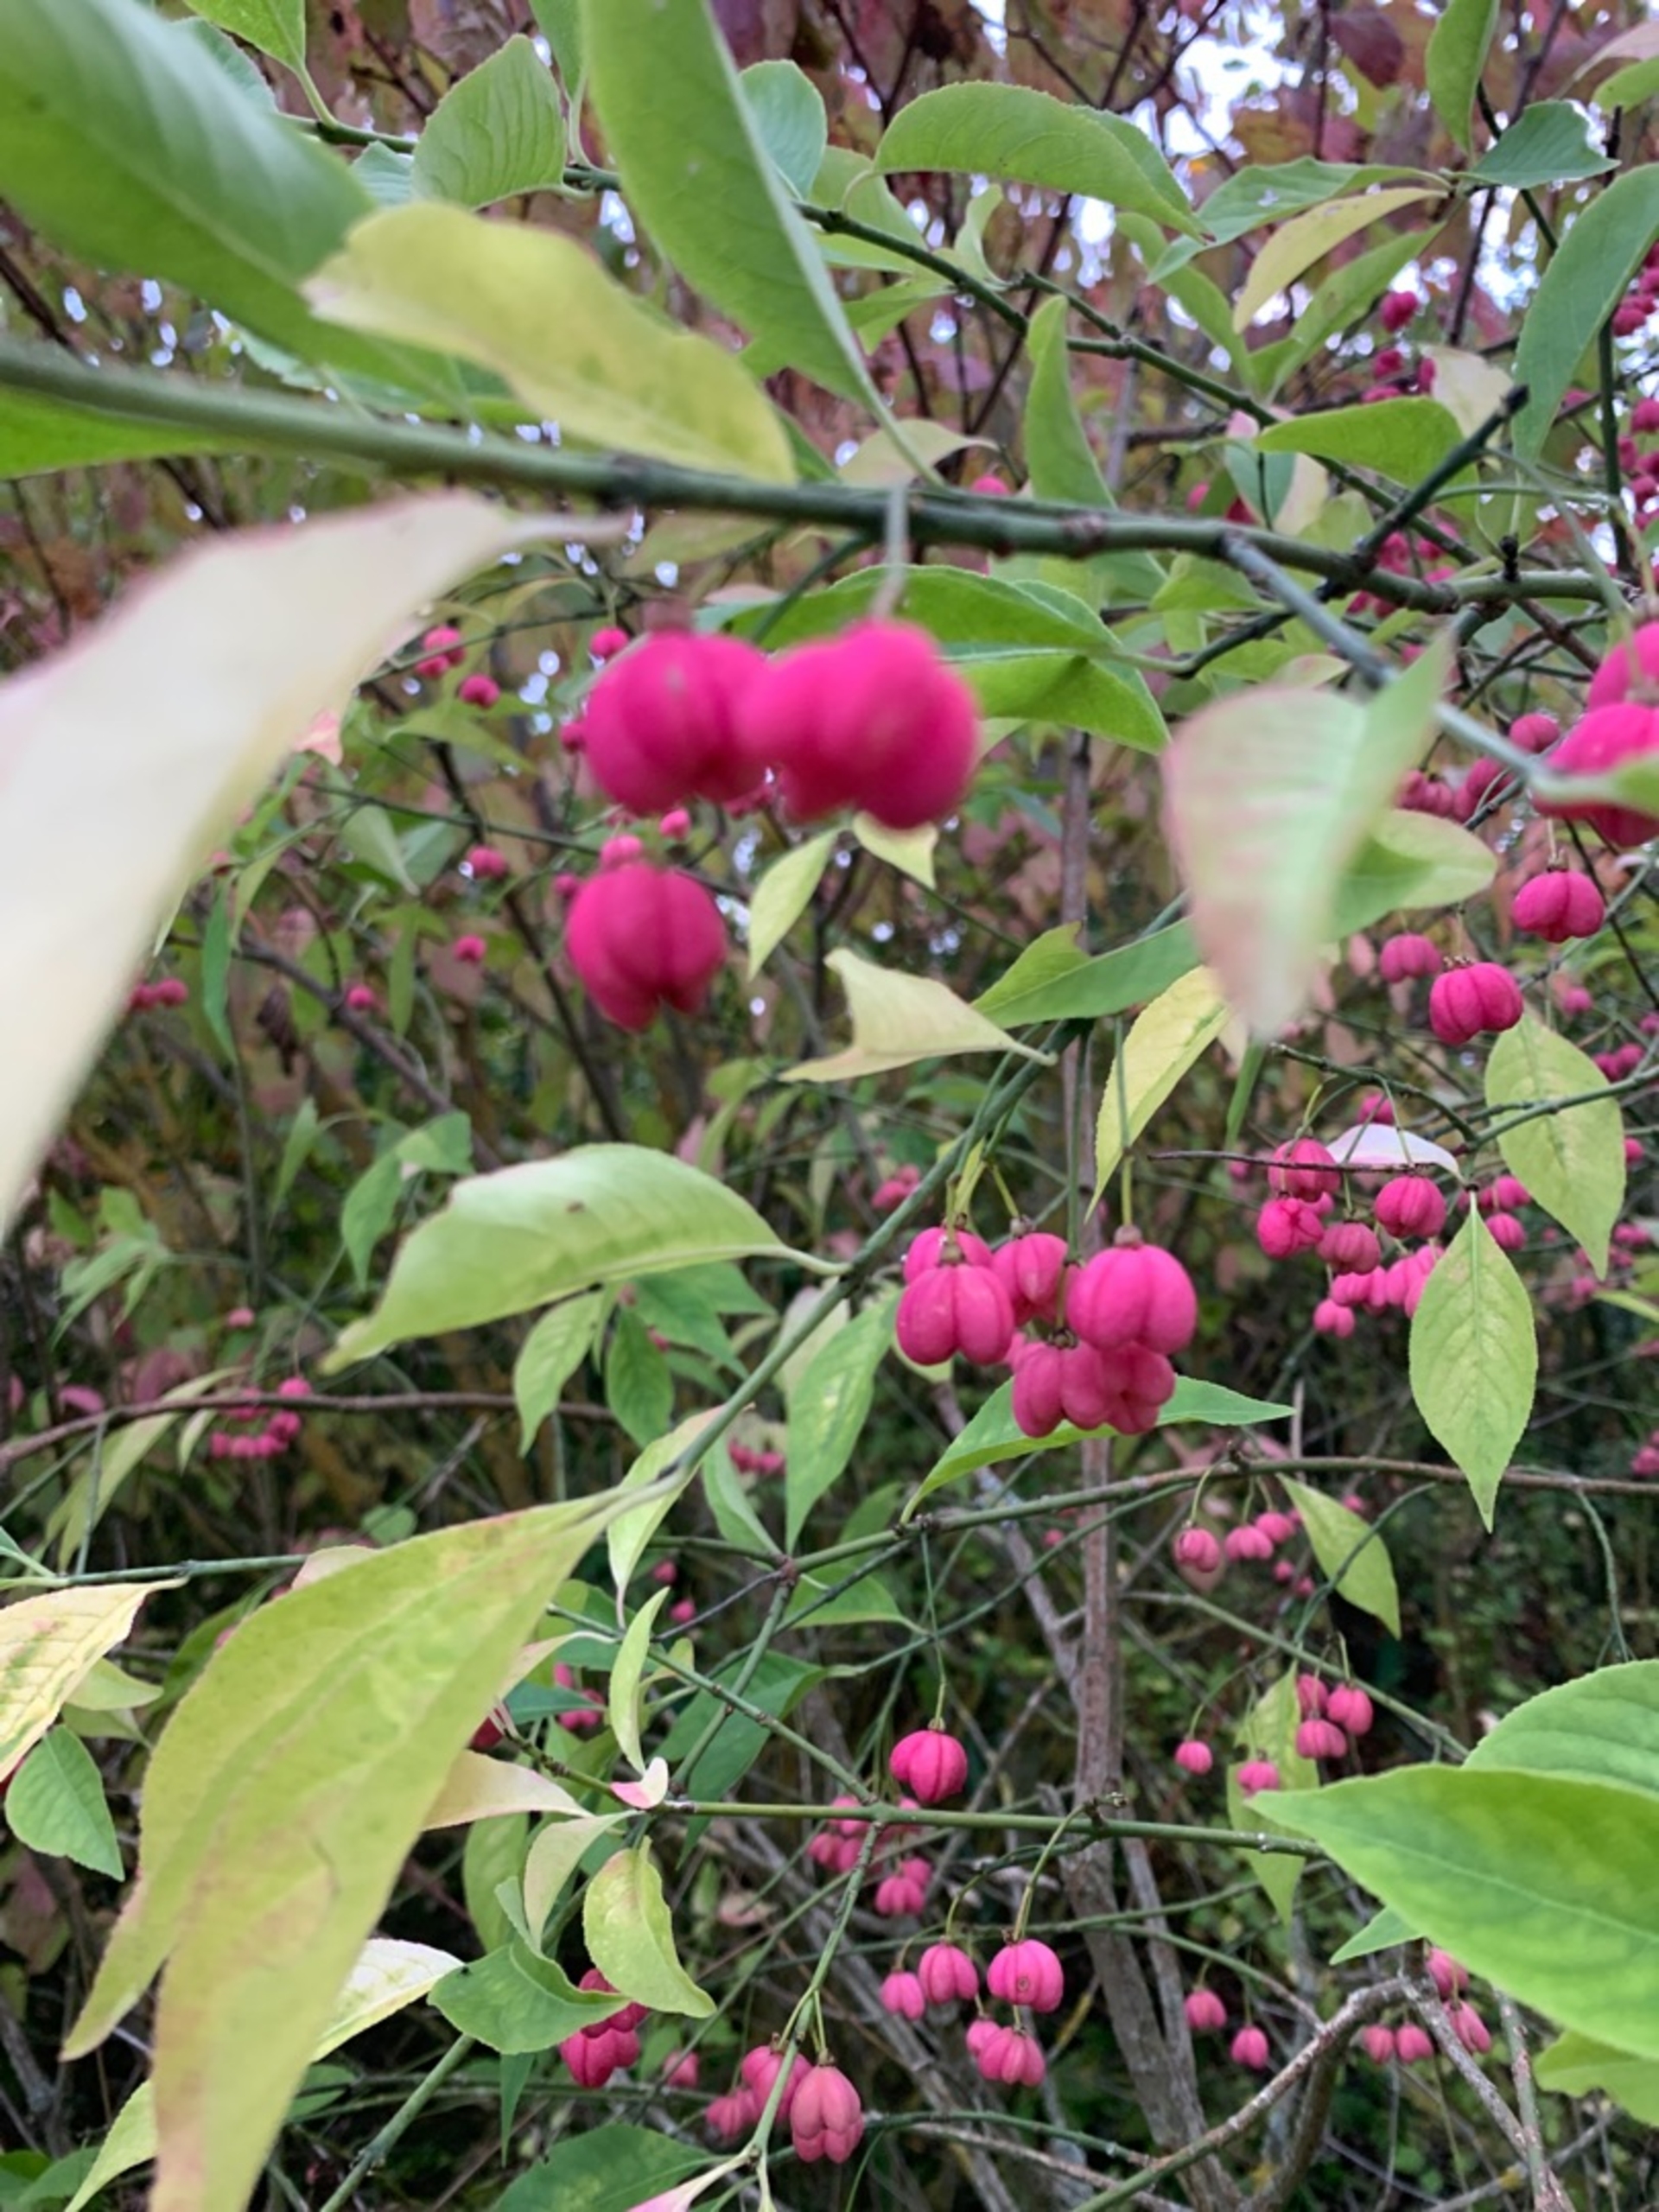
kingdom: Plantae
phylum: Tracheophyta
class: Magnoliopsida
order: Celastrales
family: Celastraceae
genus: Euonymus
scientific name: Euonymus europaeus
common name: Benved
